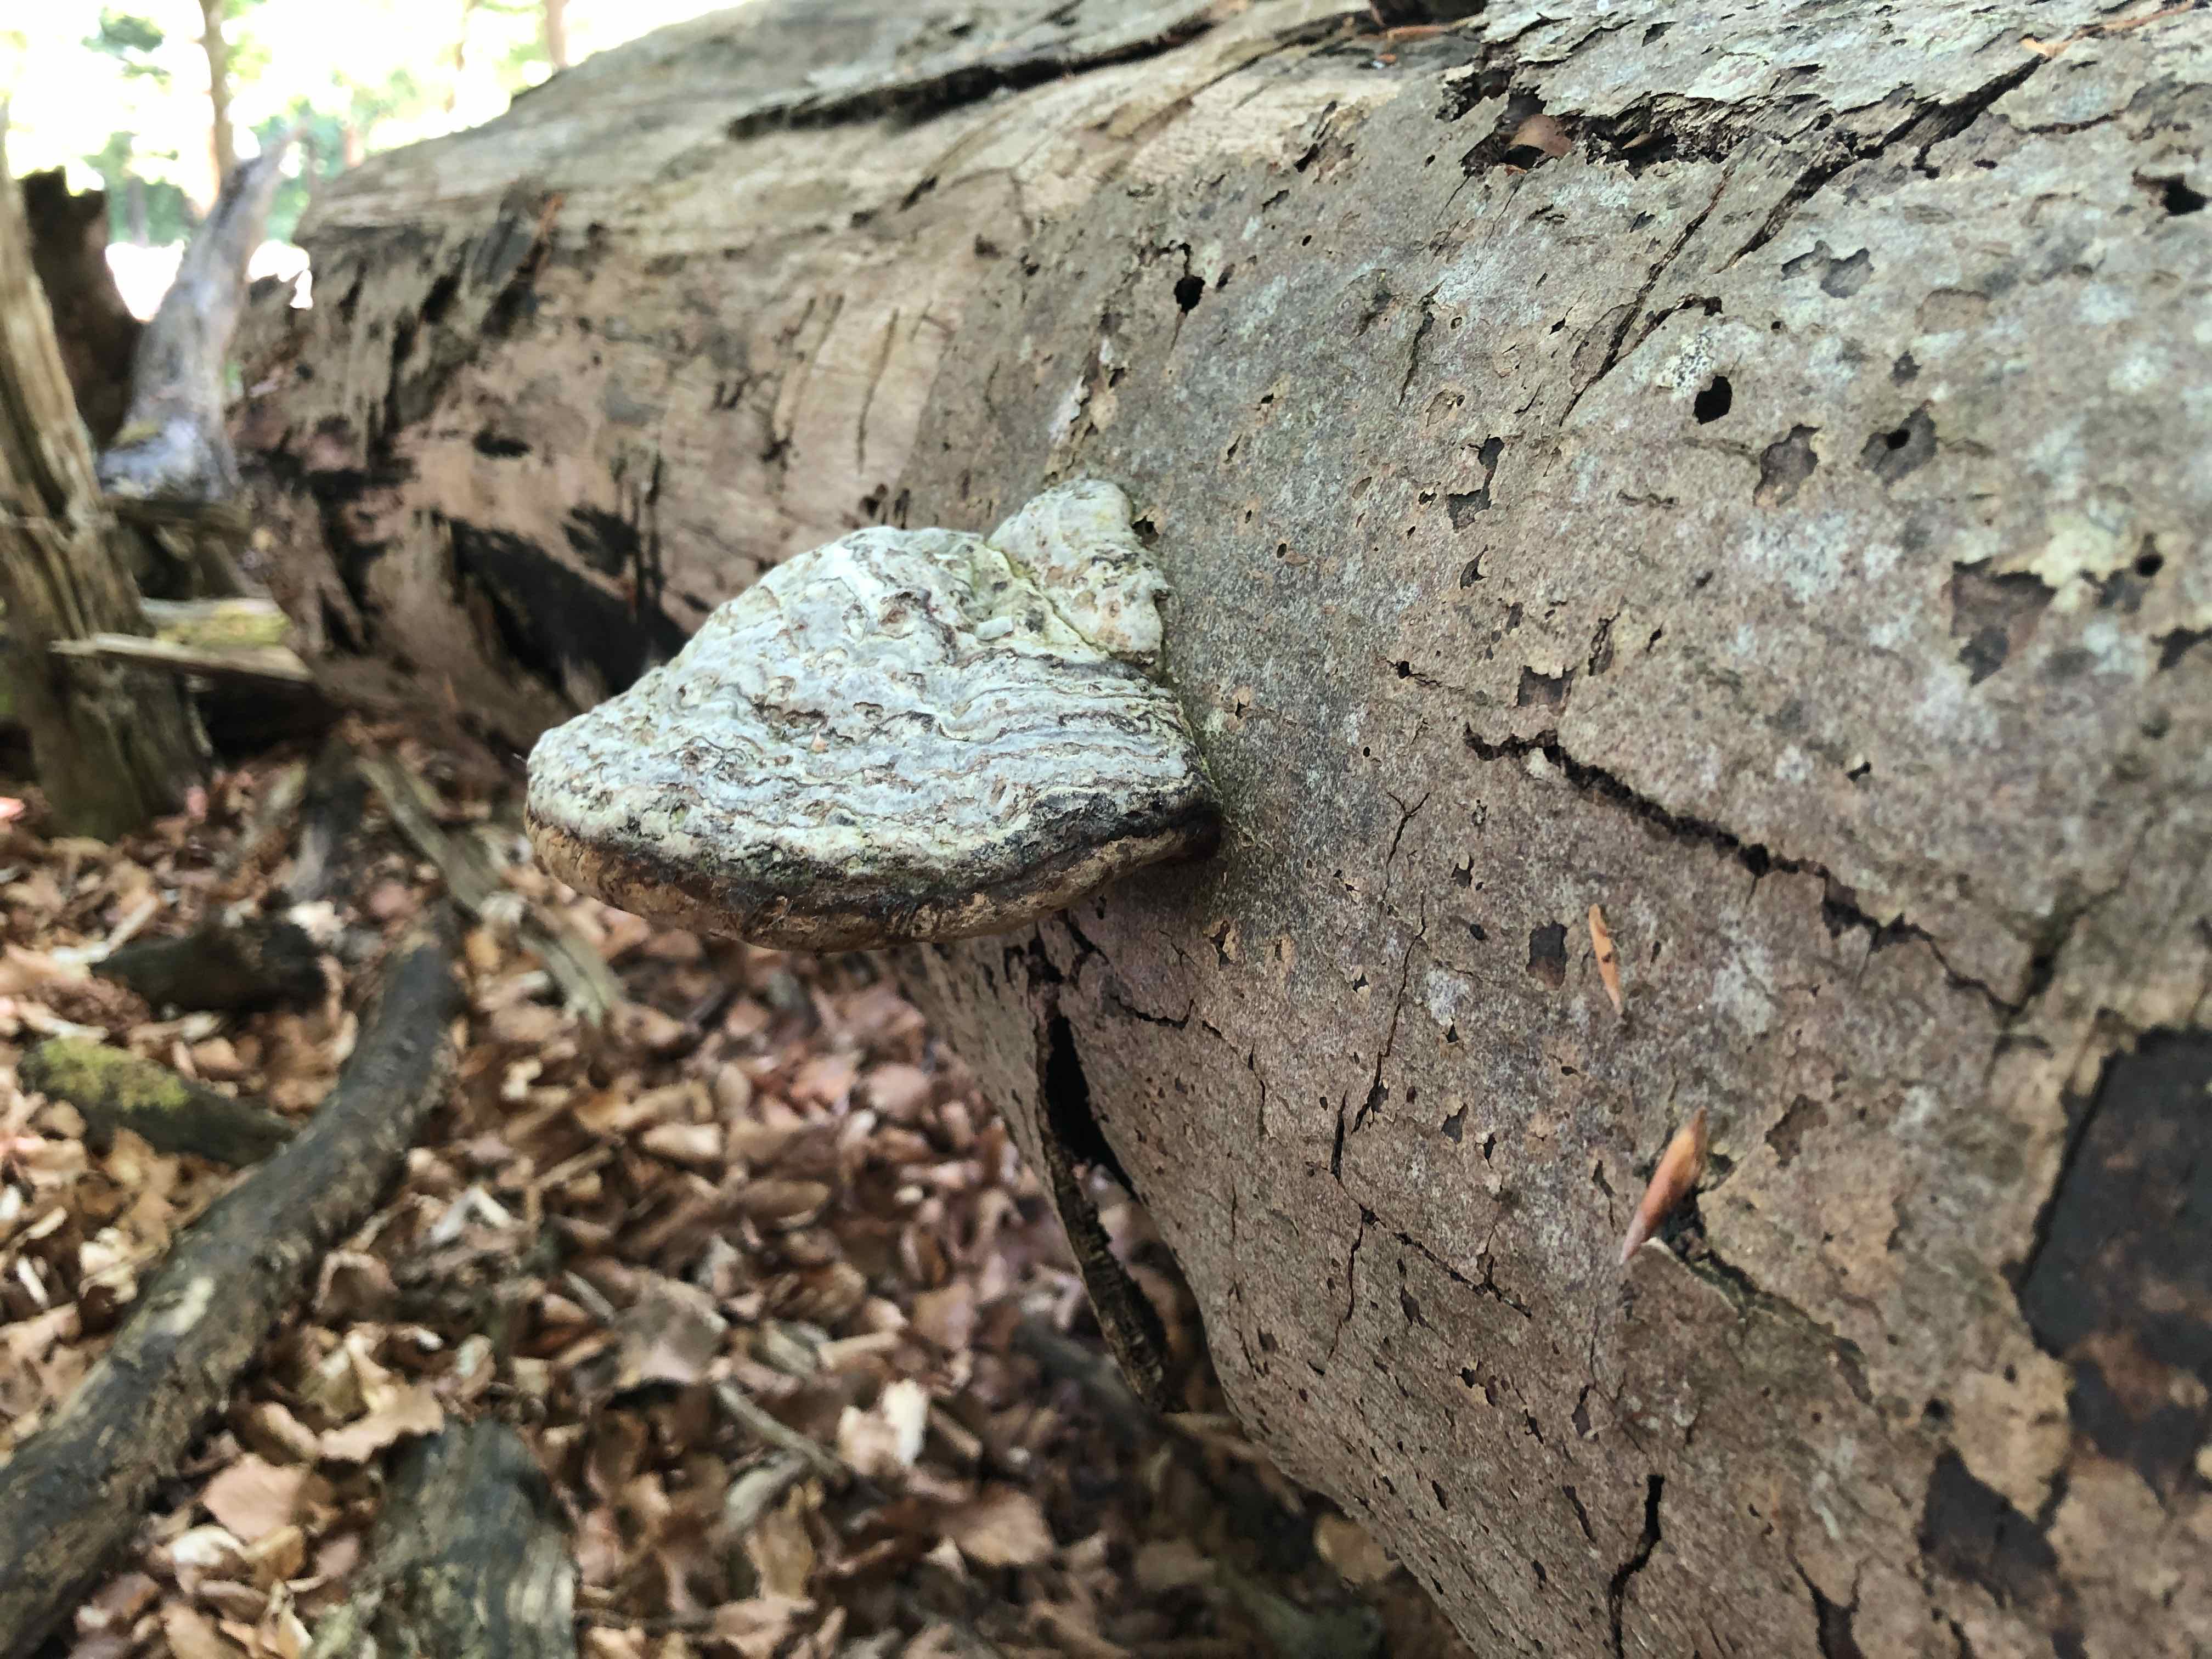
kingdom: Fungi
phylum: Basidiomycota
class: Agaricomycetes
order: Polyporales
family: Polyporaceae
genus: Fomes
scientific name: Fomes fomentarius
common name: tøndersvamp
